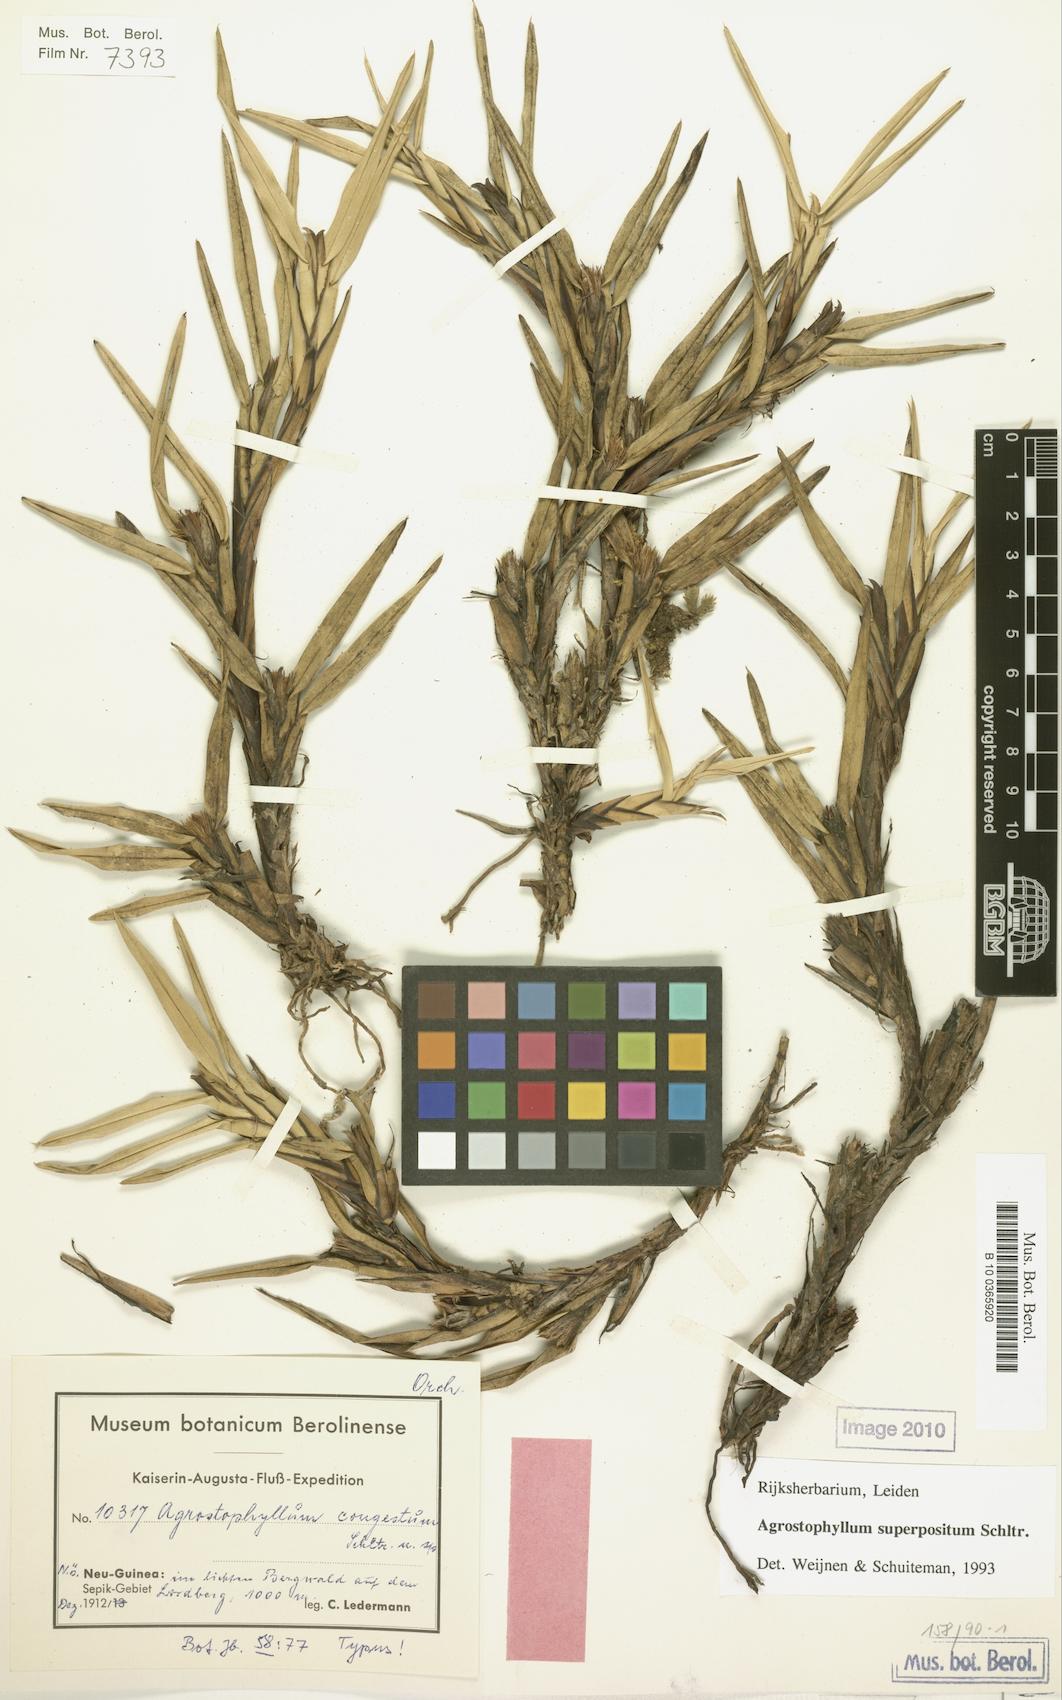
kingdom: Plantae
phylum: Tracheophyta
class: Liliopsida
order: Asparagales
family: Orchidaceae
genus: Agrostophyllum
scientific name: Agrostophyllum superpositum
